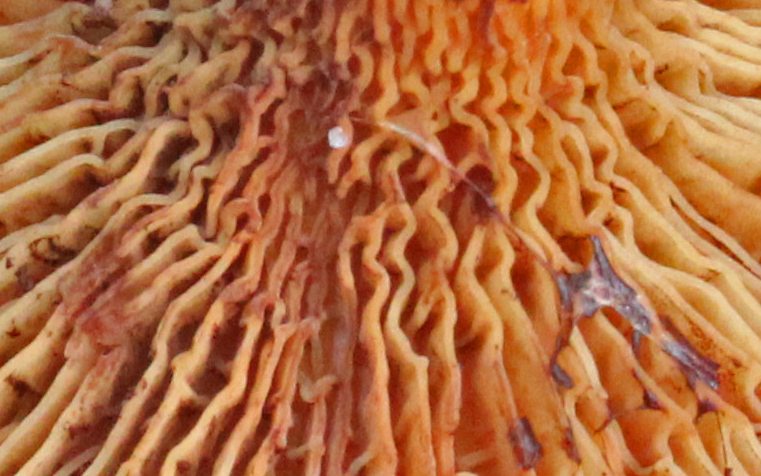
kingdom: Fungi
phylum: Basidiomycota
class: Agaricomycetes
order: Boletales
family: Paxillaceae
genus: Paxillus
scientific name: Paxillus rubicundulus
